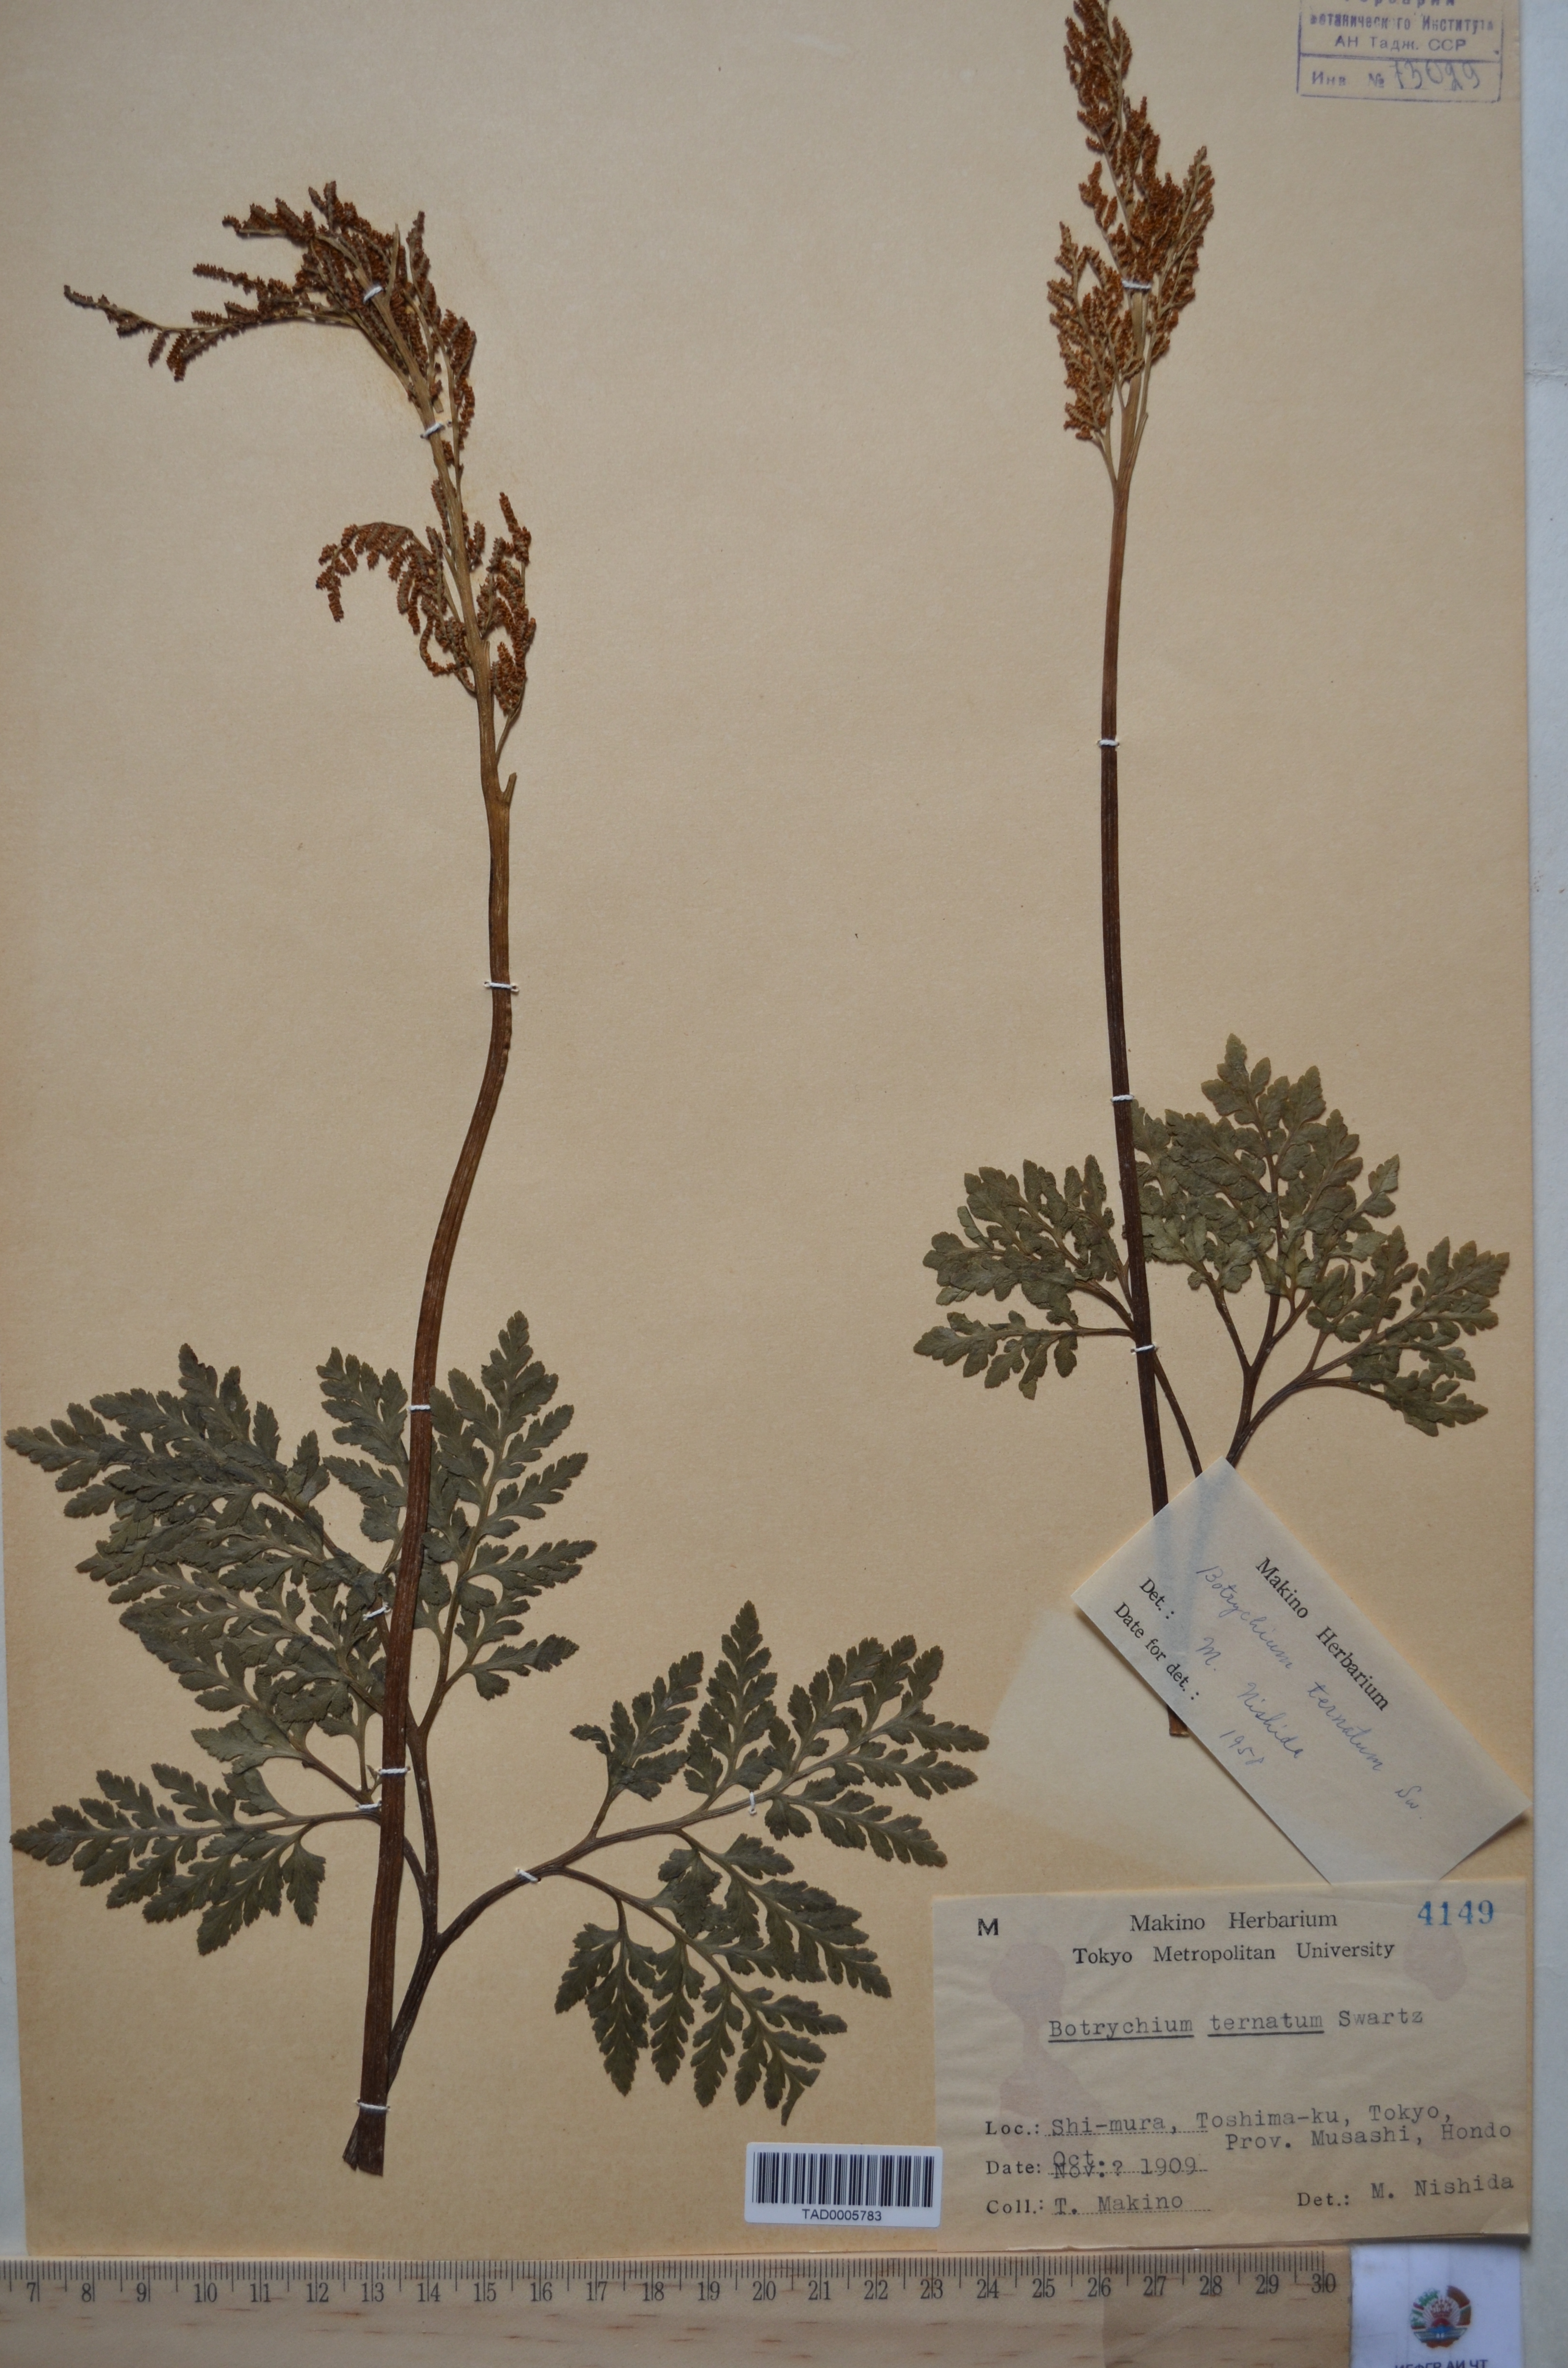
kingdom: Plantae
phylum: Tracheophyta
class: Polypodiopsida
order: Ophioglossales
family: Ophioglossaceae
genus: Sceptridium
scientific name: Sceptridium ternatum
